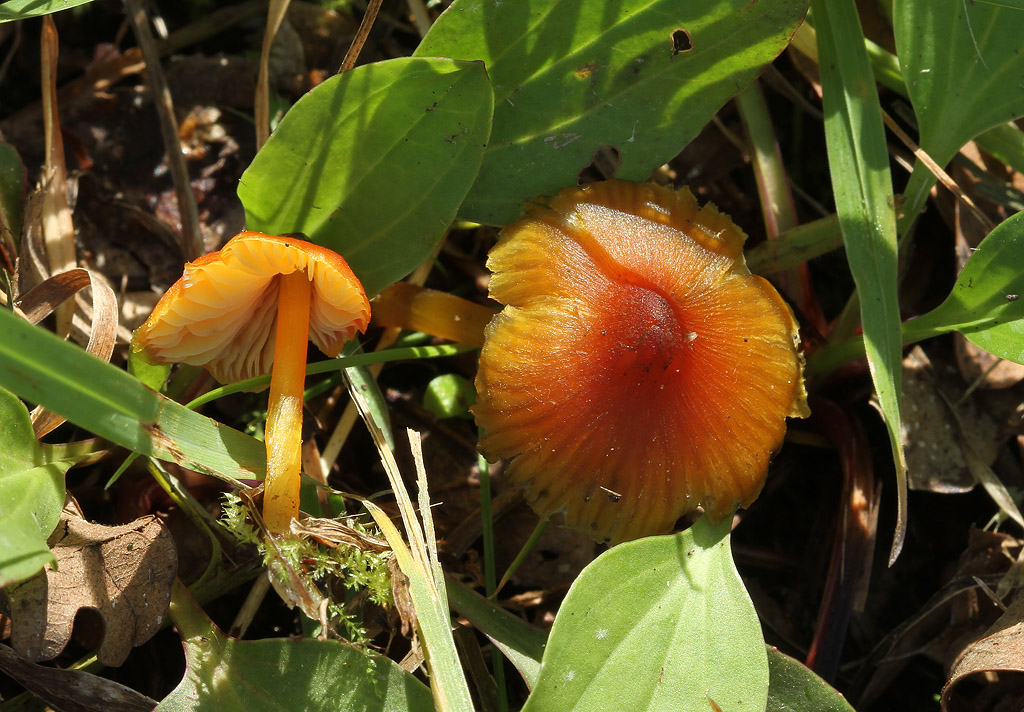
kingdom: Fungi
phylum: Basidiomycota
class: Agaricomycetes
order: Agaricales
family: Hygrophoraceae
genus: Hygrocybe
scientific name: Hygrocybe conica
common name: kegle-vokshat
